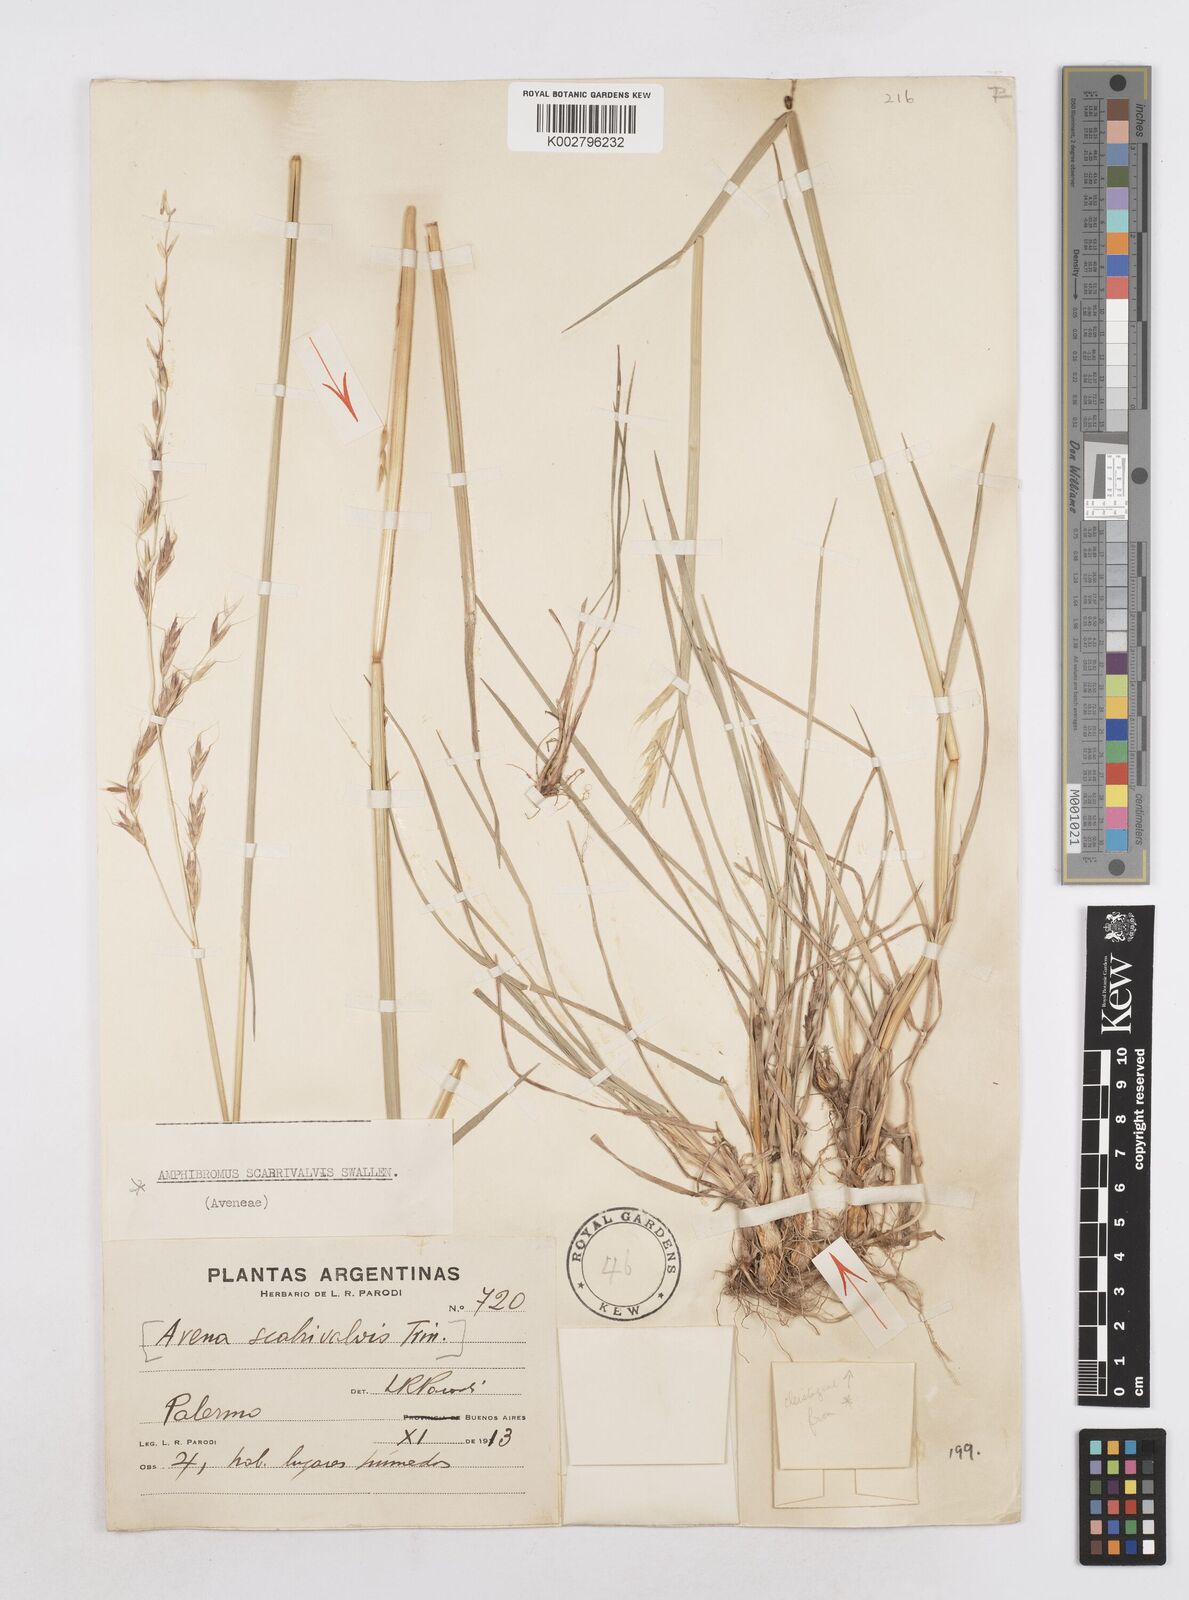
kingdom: Plantae
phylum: Tracheophyta
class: Liliopsida
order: Poales
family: Poaceae
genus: Helictotrichon
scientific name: Helictotrichon
